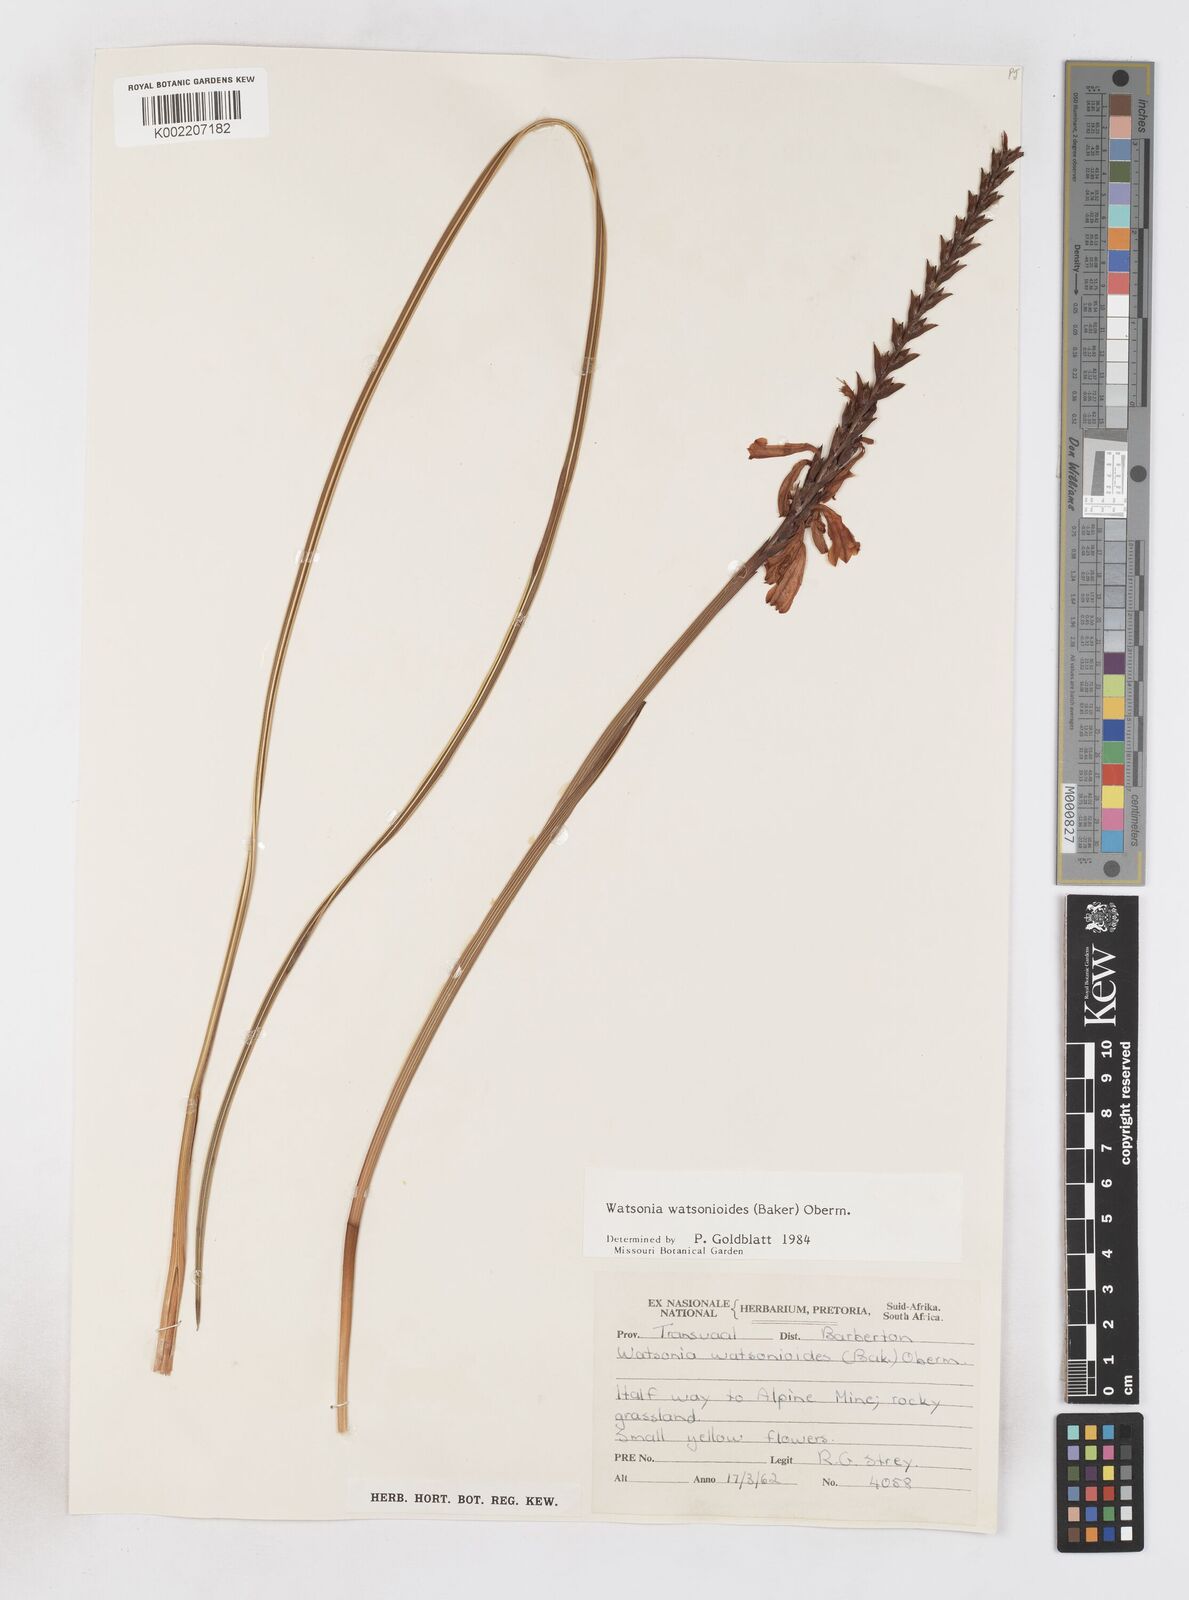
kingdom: Plantae
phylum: Tracheophyta
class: Liliopsida
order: Asparagales
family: Iridaceae
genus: Watsonia
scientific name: Watsonia watsonioides
